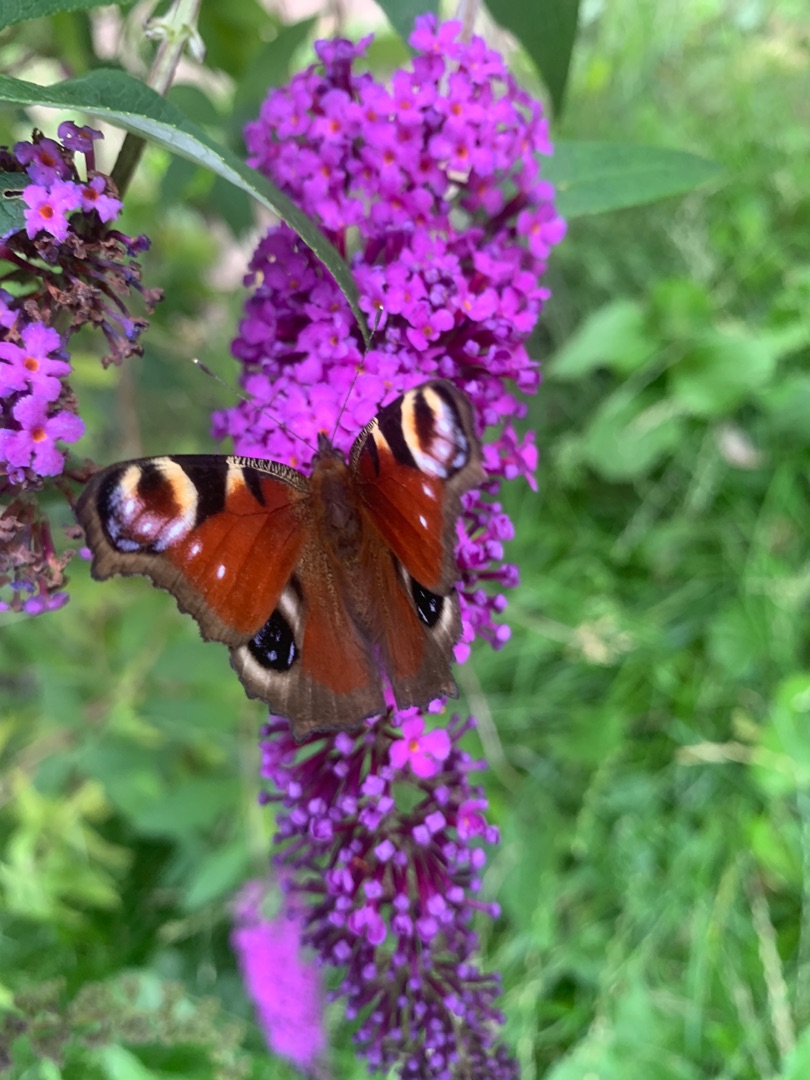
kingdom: Animalia
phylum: Arthropoda
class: Insecta
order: Lepidoptera
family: Nymphalidae
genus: Aglais
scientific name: Aglais io
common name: Dagpåfugleøje
